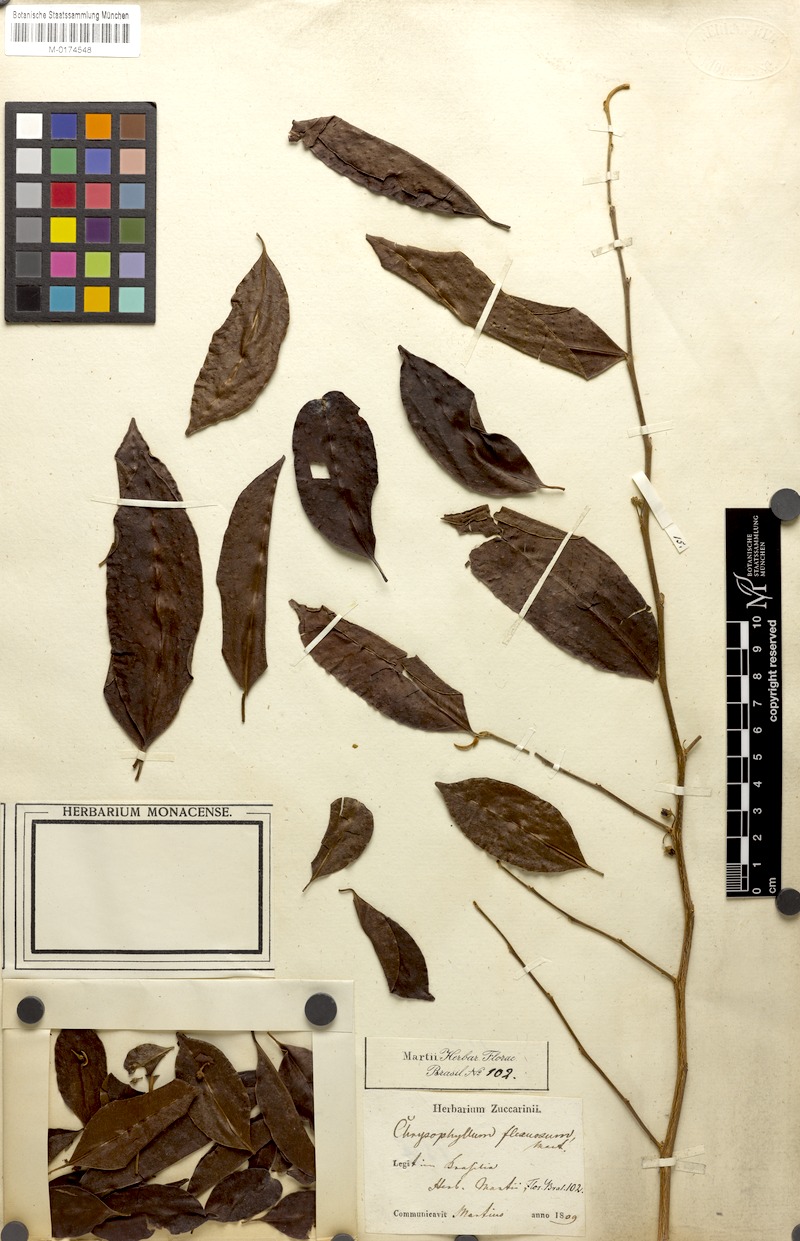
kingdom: Plantae
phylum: Tracheophyta
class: Magnoliopsida
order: Ericales
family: Sapotaceae
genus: Chrysophyllum
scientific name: Chrysophyllum flexuosum
